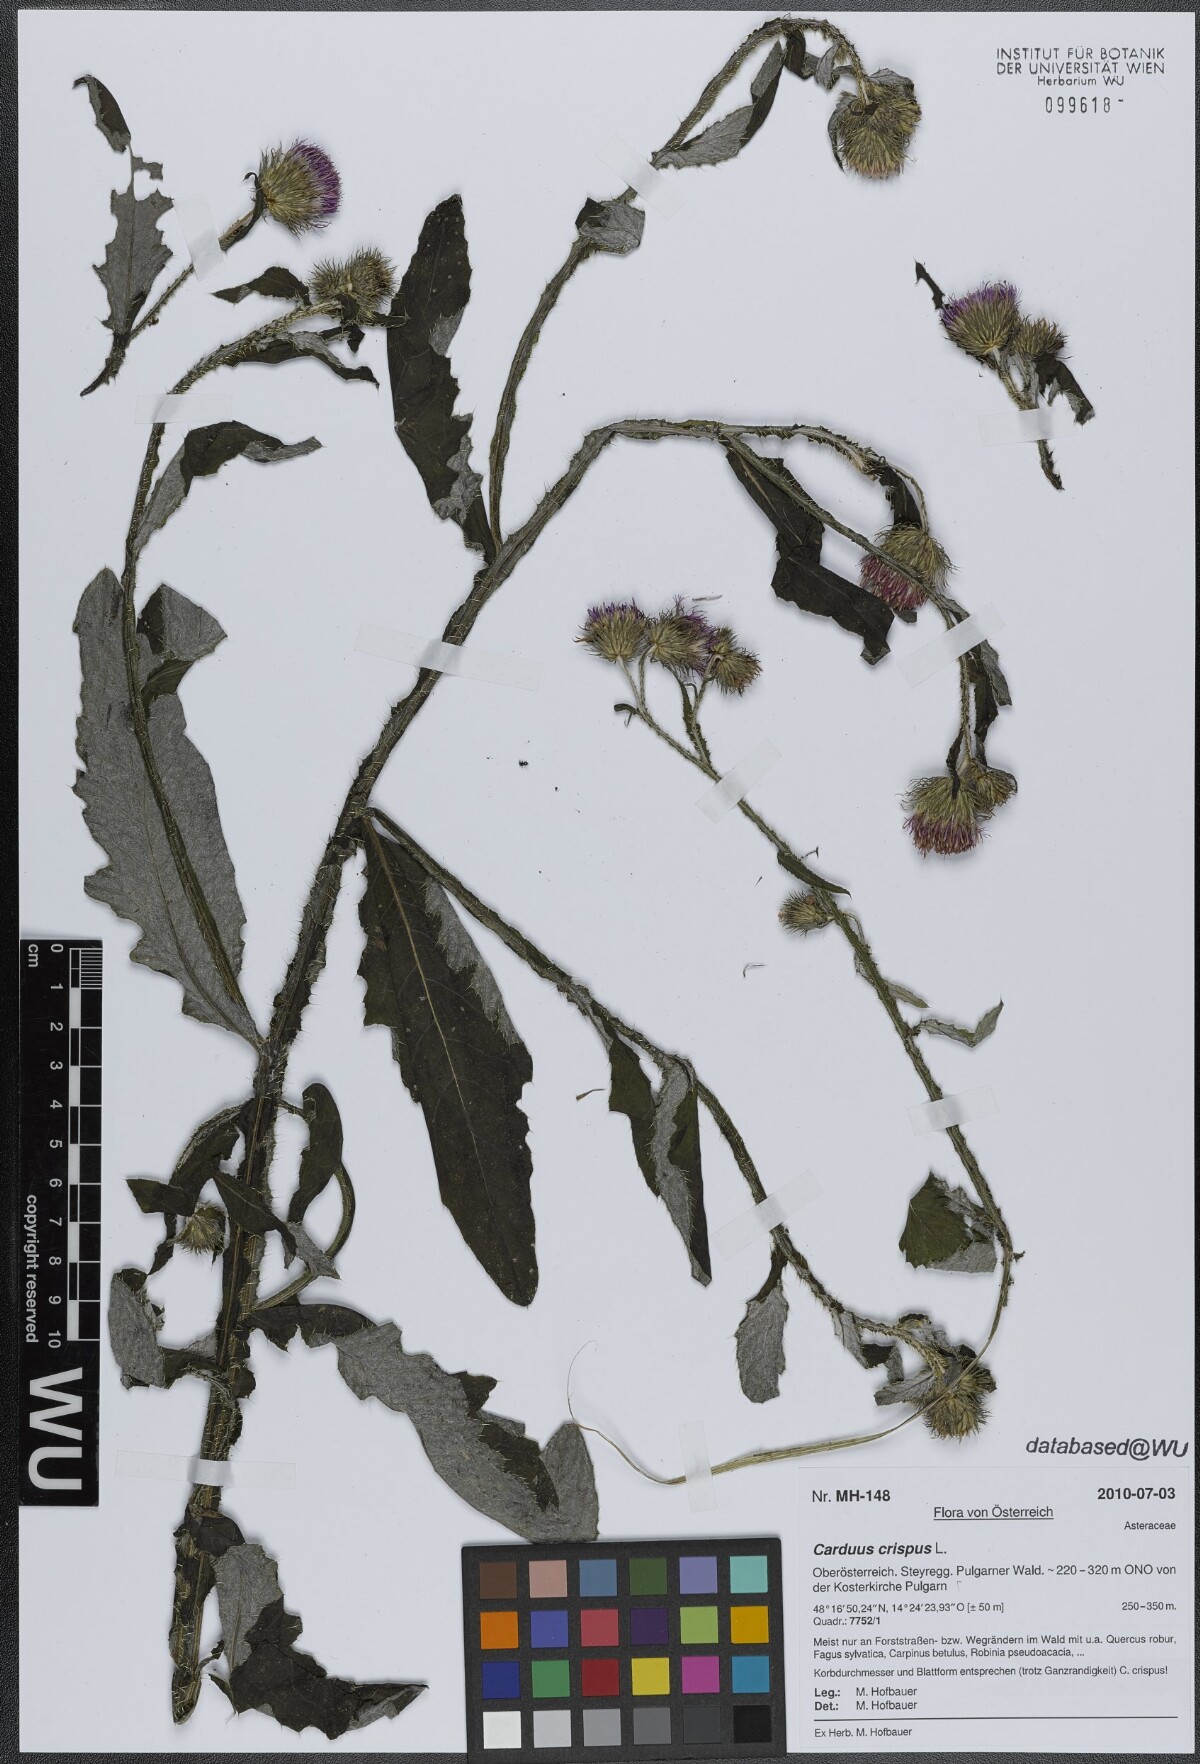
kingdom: Plantae
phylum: Tracheophyta
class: Magnoliopsida
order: Asterales
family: Asteraceae
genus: Carduus
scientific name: Carduus crispus
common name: Welted thistle
